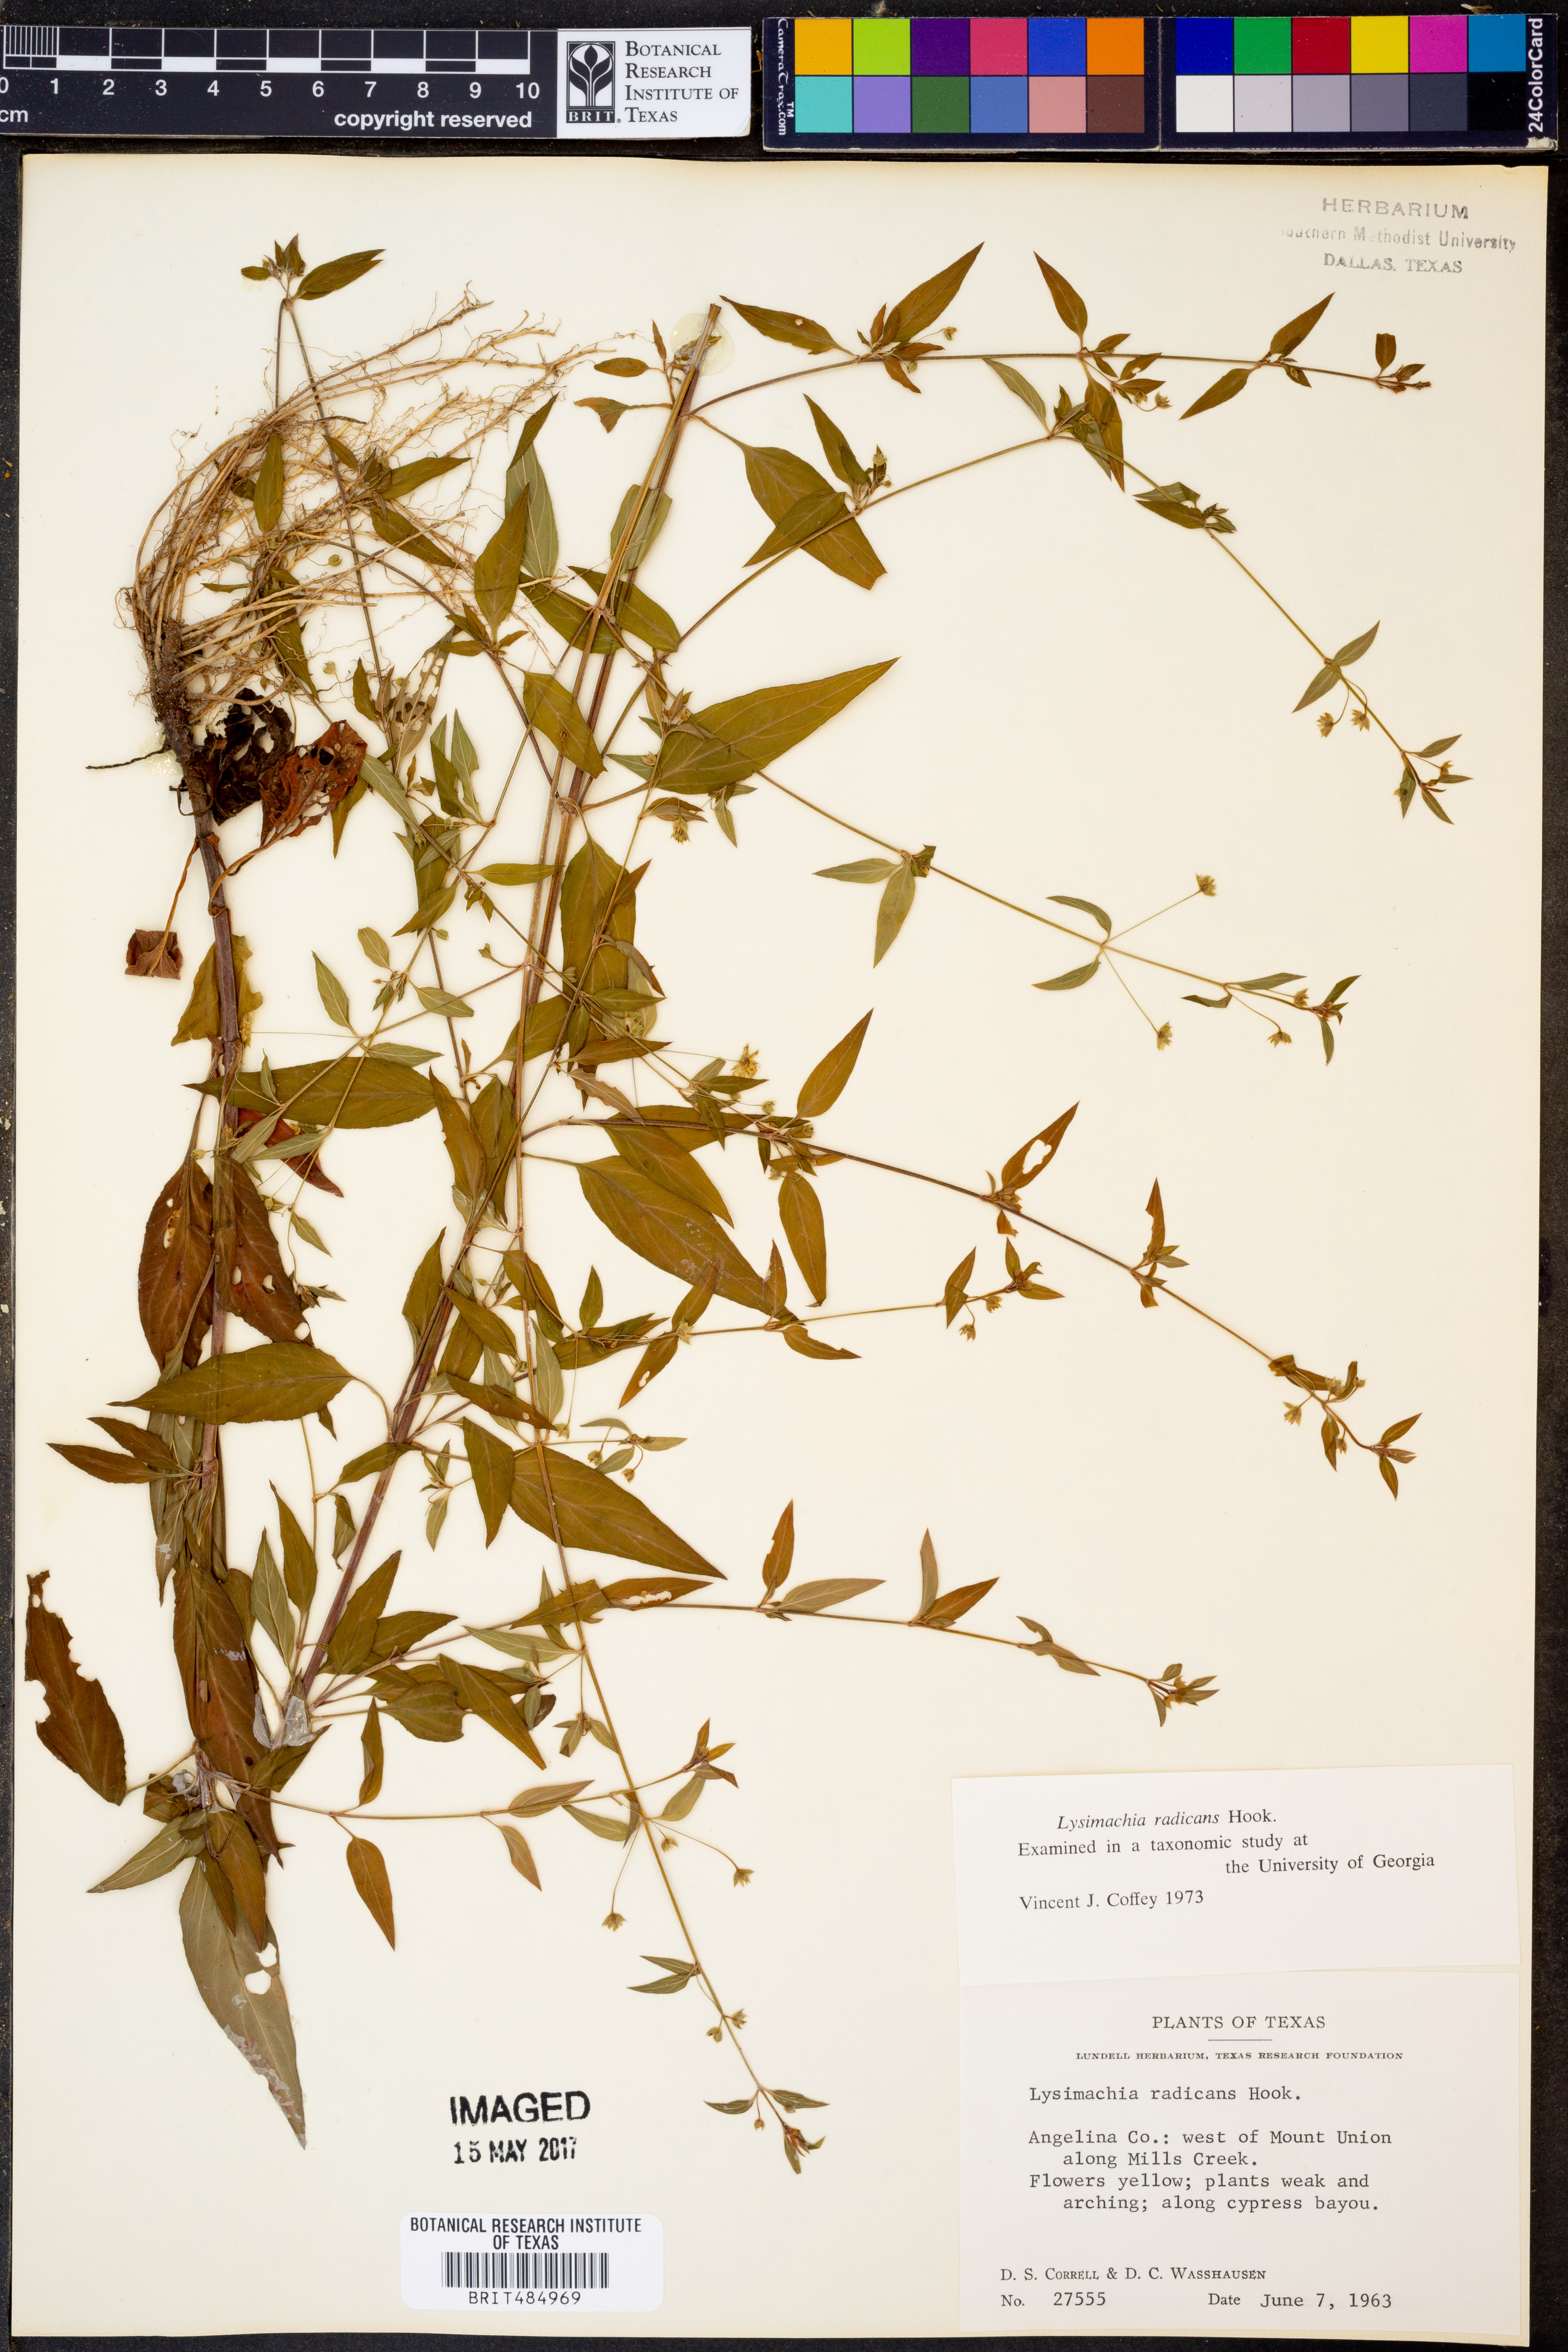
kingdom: Plantae
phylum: Tracheophyta
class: Magnoliopsida
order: Ericales
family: Primulaceae
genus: Lysimachia
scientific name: Lysimachia radicans
